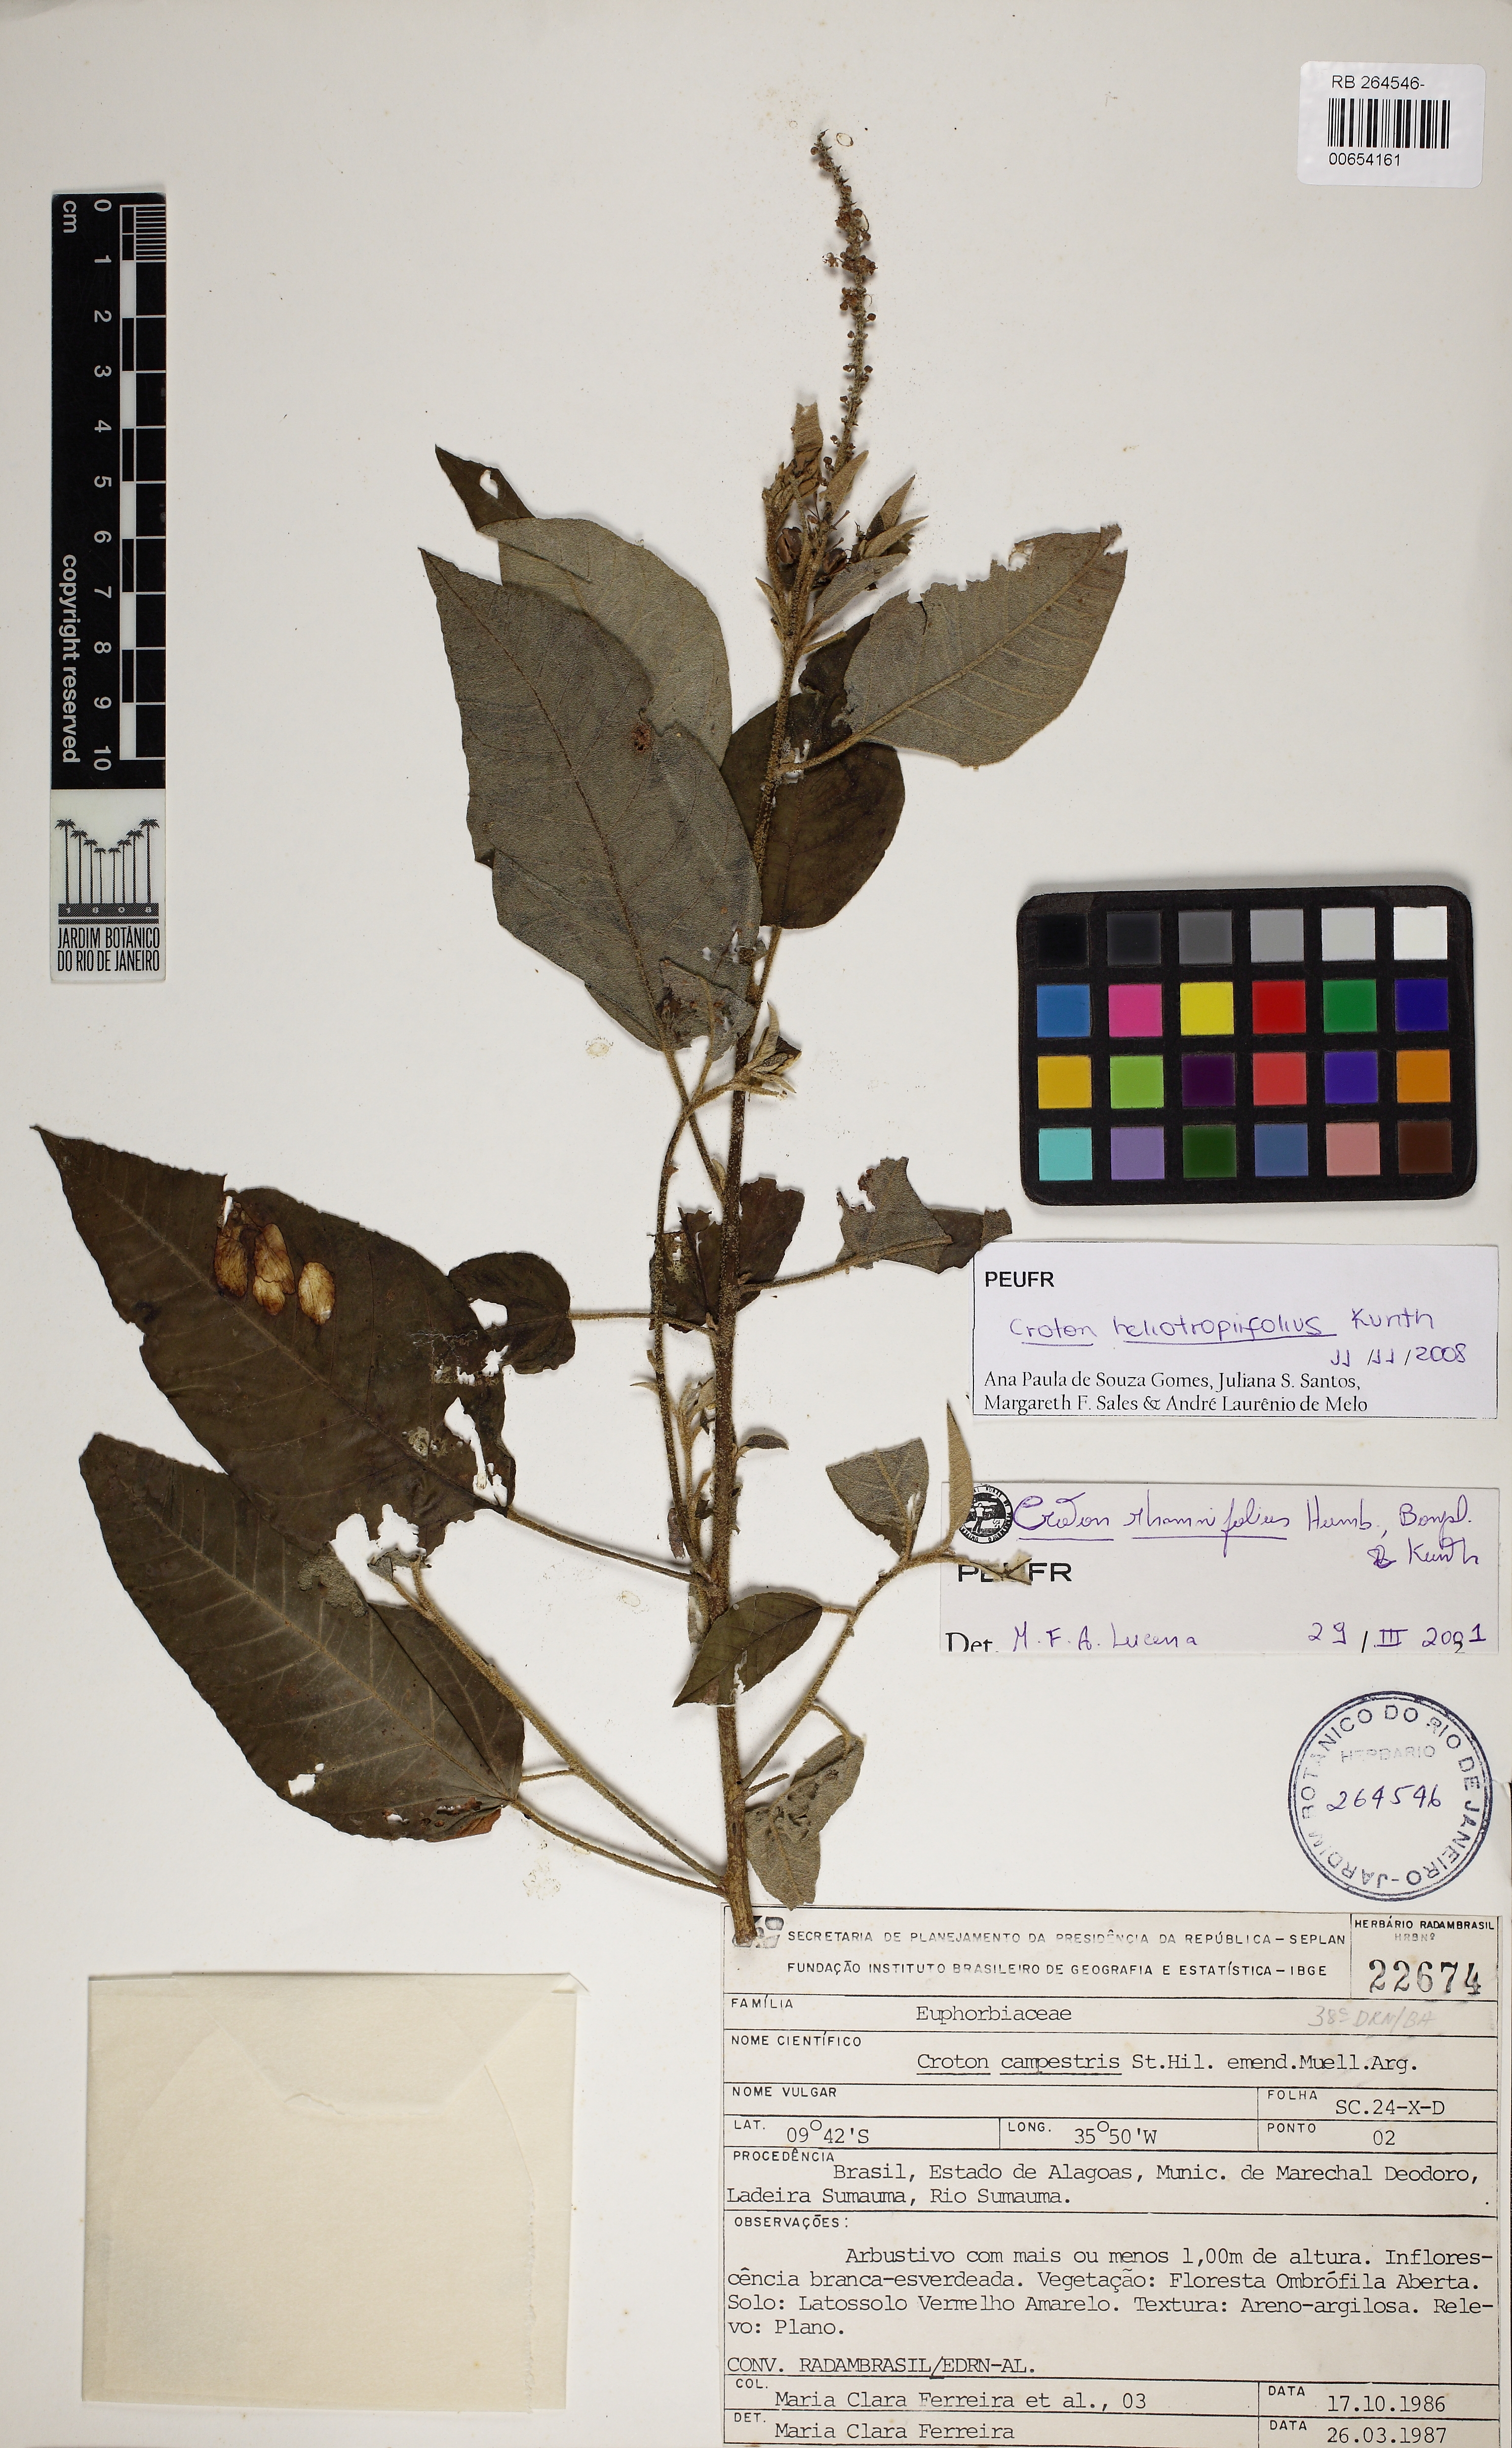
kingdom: Plantae
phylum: Tracheophyta
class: Magnoliopsida
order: Malpighiales
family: Euphorbiaceae
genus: Croton
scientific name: Croton heliotropiifolius
